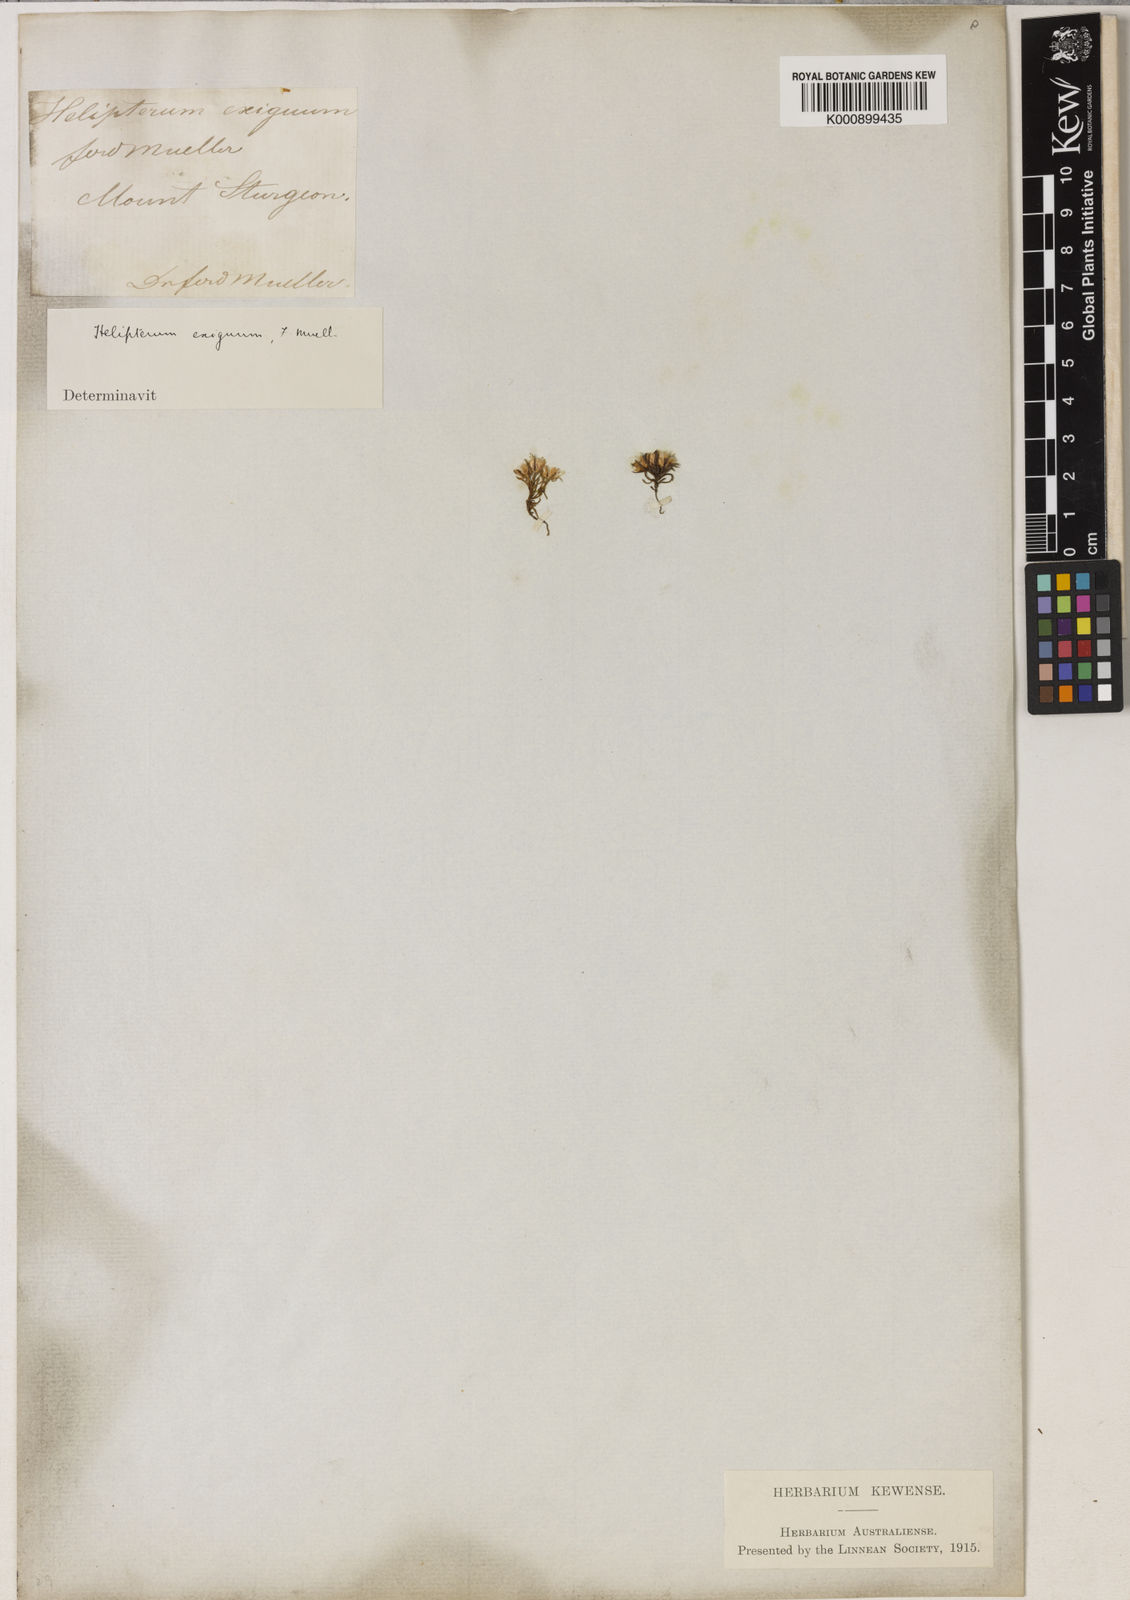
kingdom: Plantae
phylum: Tracheophyta
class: Magnoliopsida
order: Asterales
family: Asteraceae
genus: Hyalosperma
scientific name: Hyalosperma demissum
